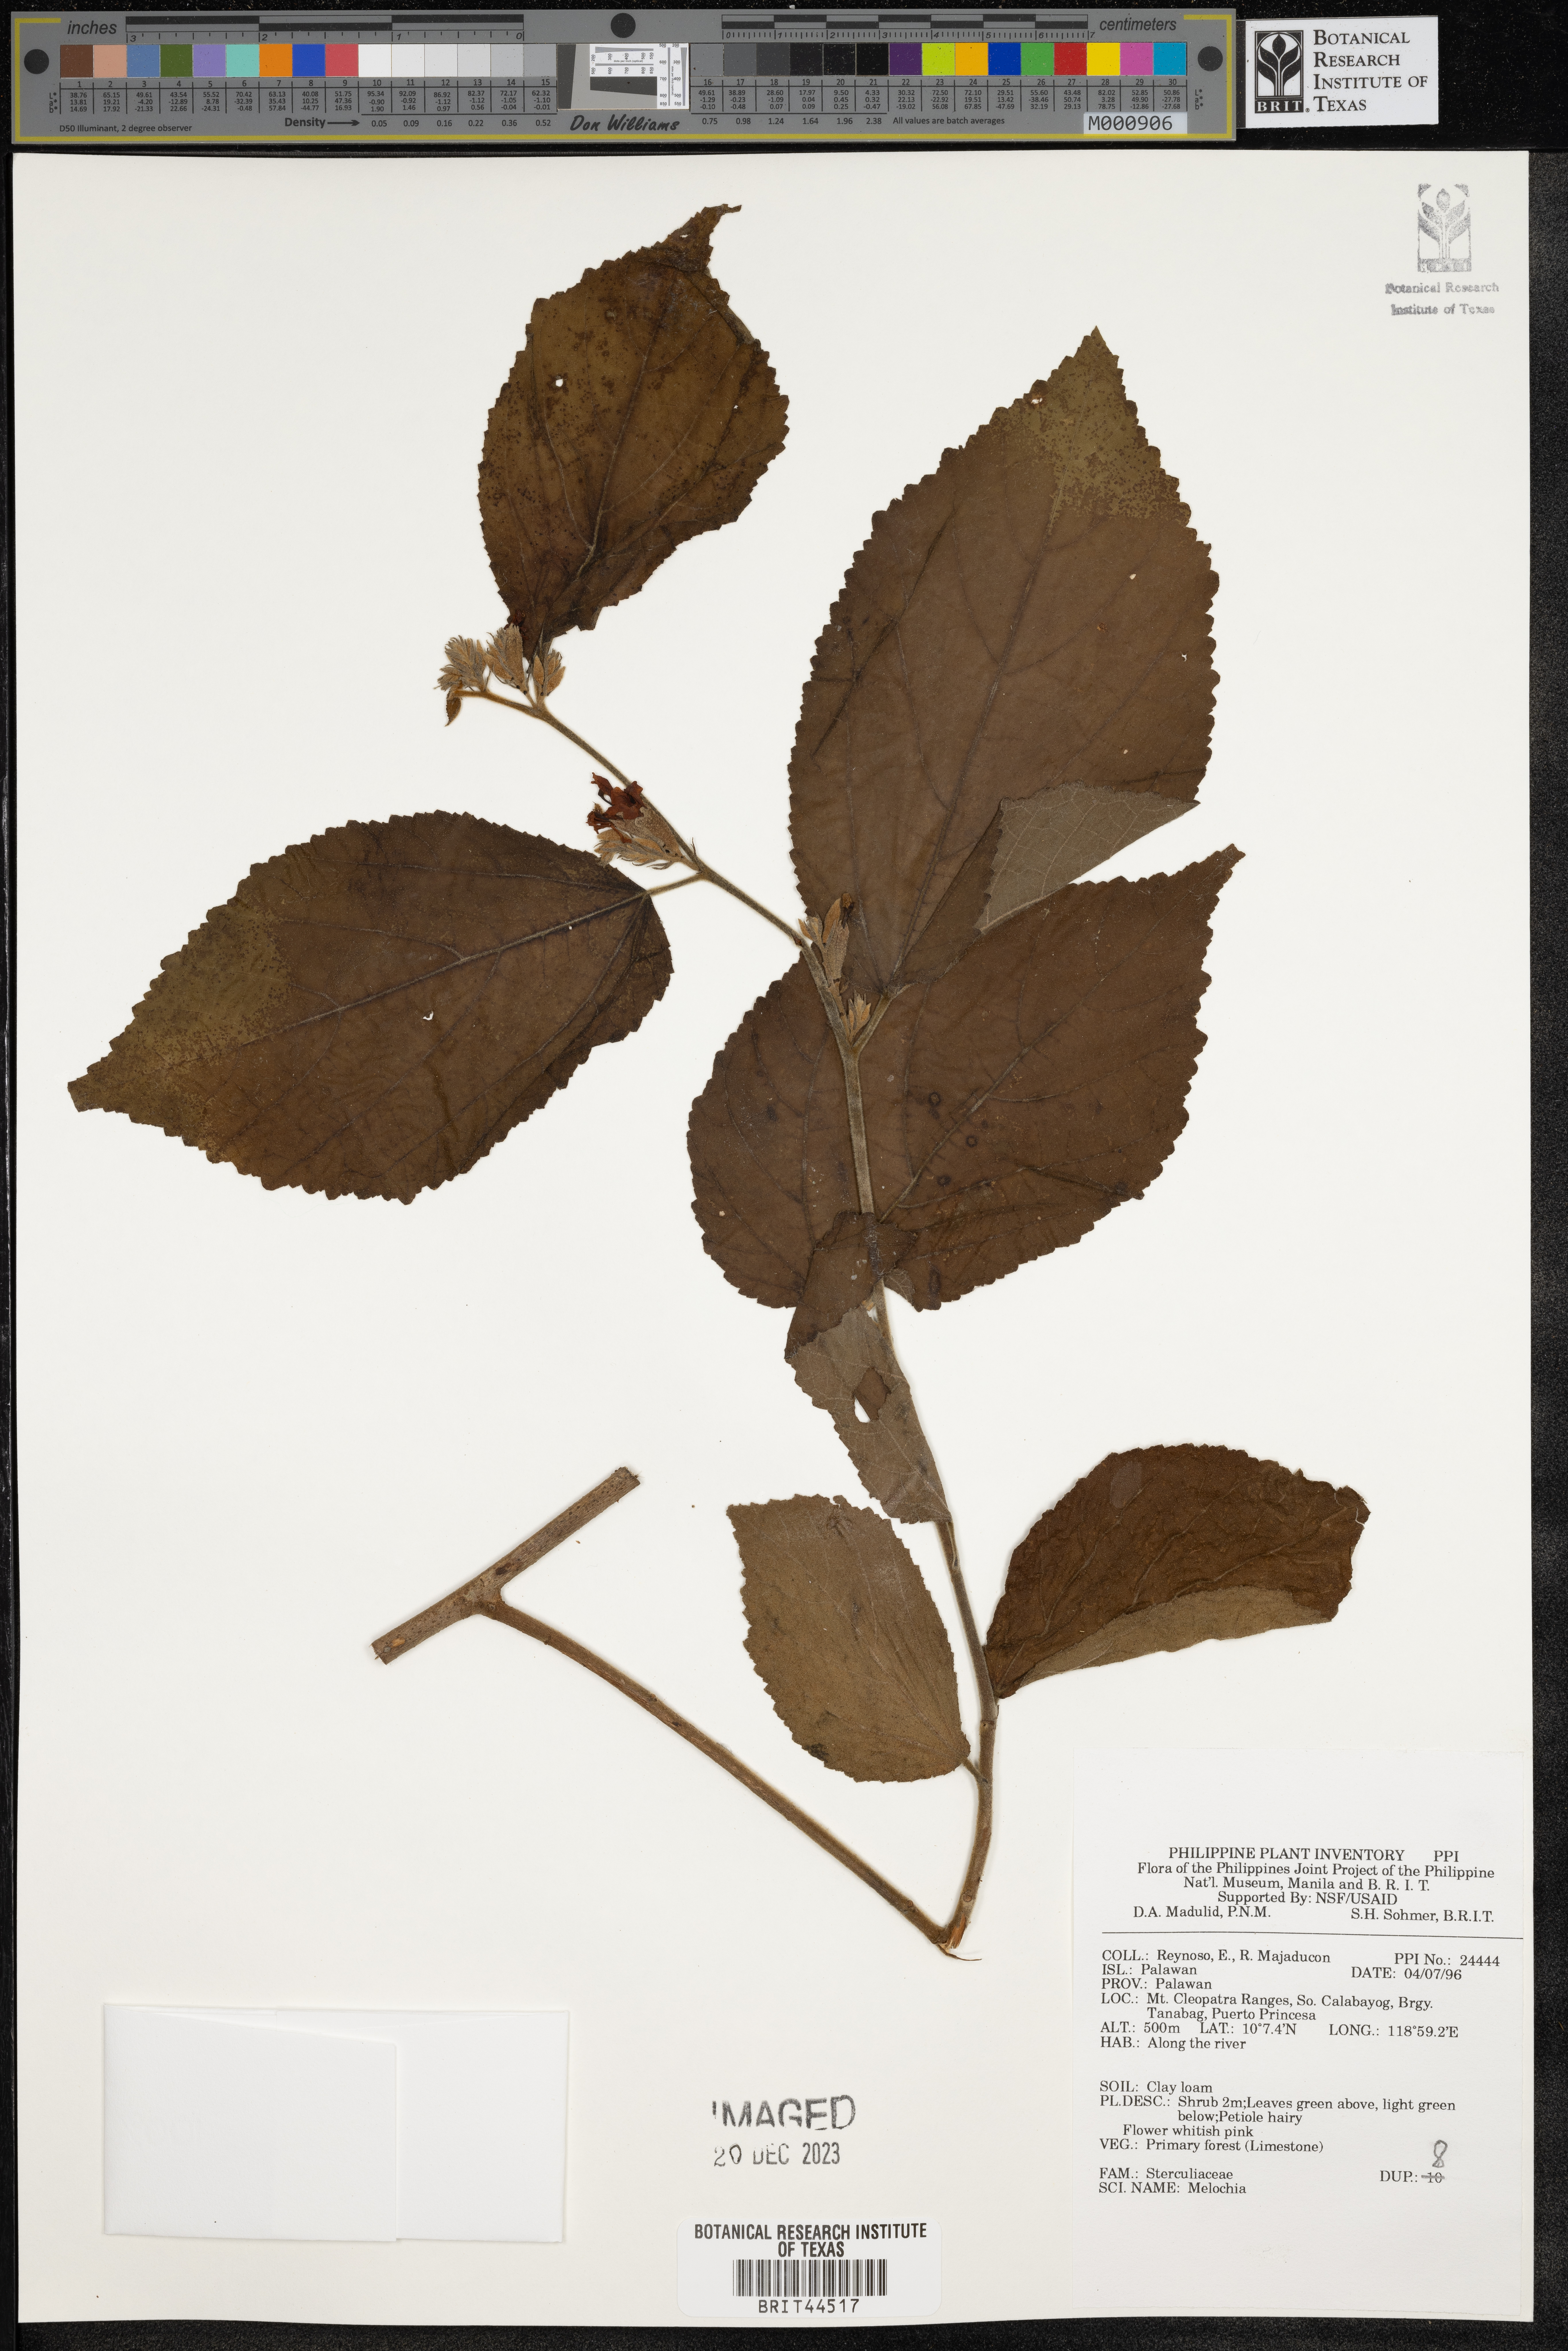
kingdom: Plantae
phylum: Tracheophyta
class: Magnoliopsida
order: Malvales
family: Malvaceae
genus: Melochia
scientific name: Melochia
